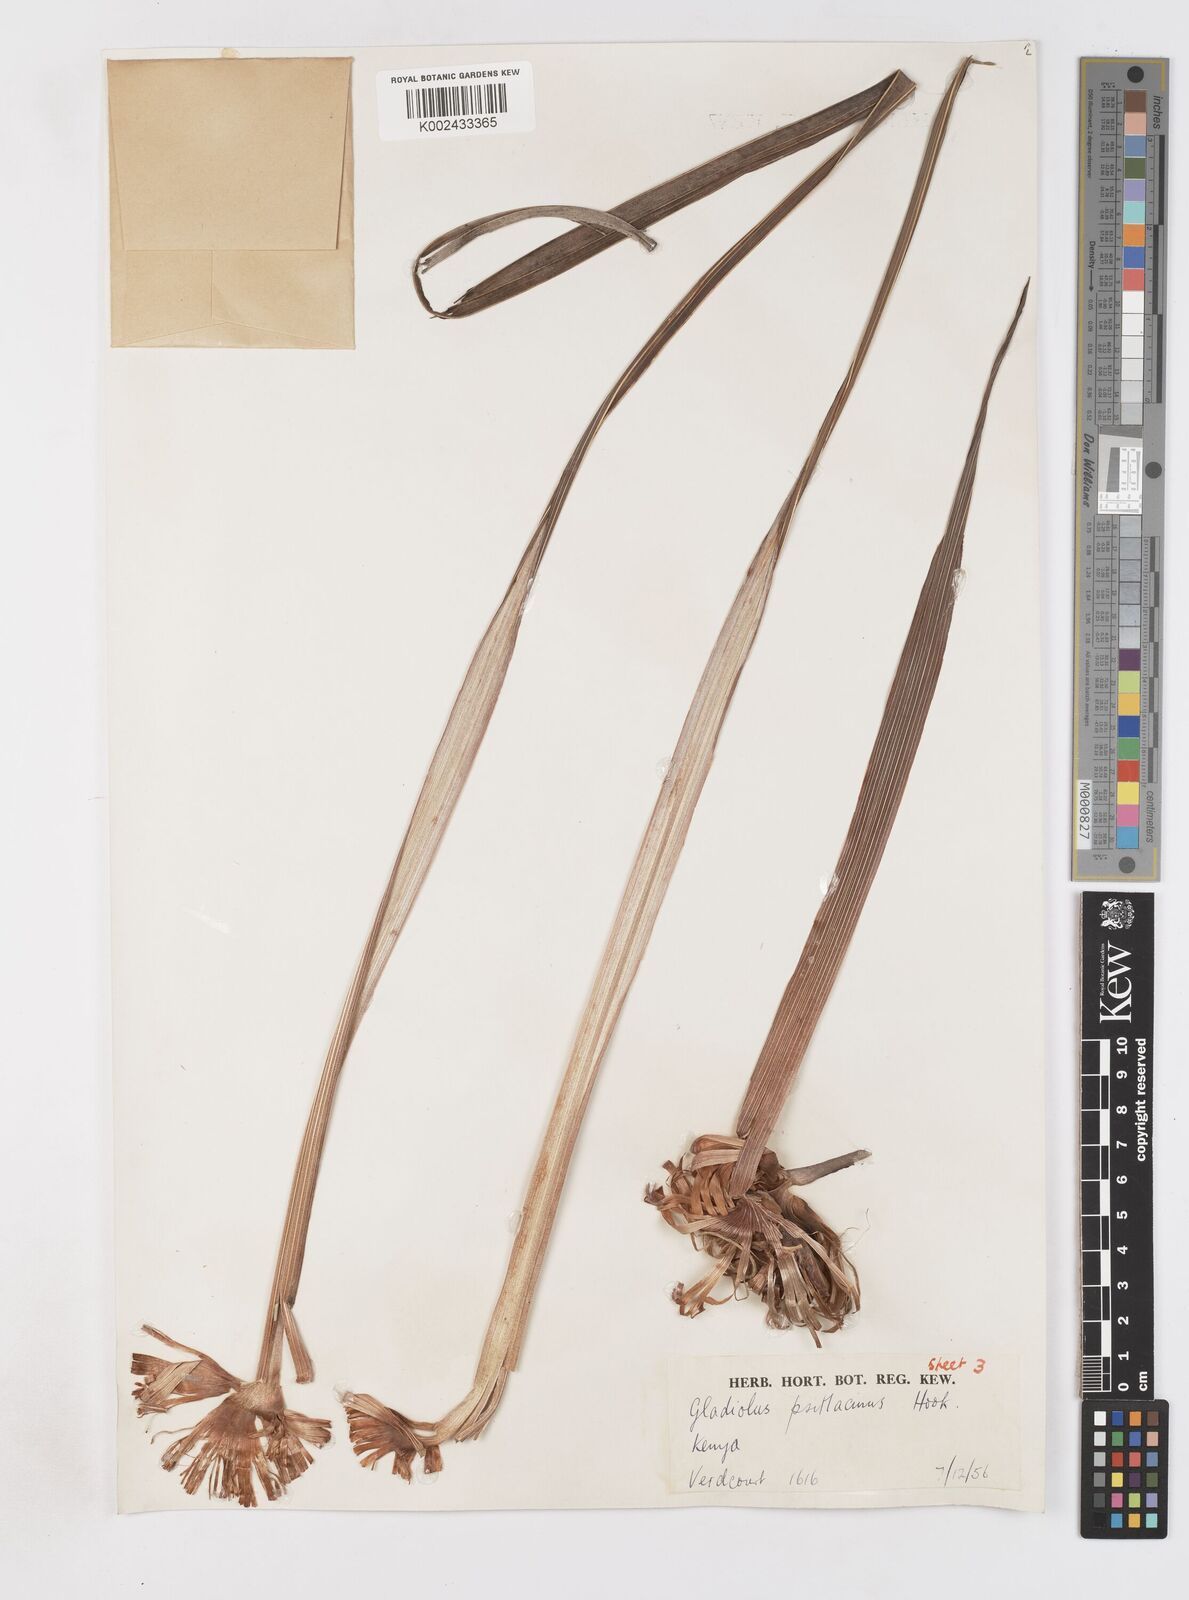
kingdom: Plantae
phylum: Tracheophyta
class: Liliopsida
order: Asparagales
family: Iridaceae
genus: Gladiolus
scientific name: Gladiolus dalenii
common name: Cornflag
